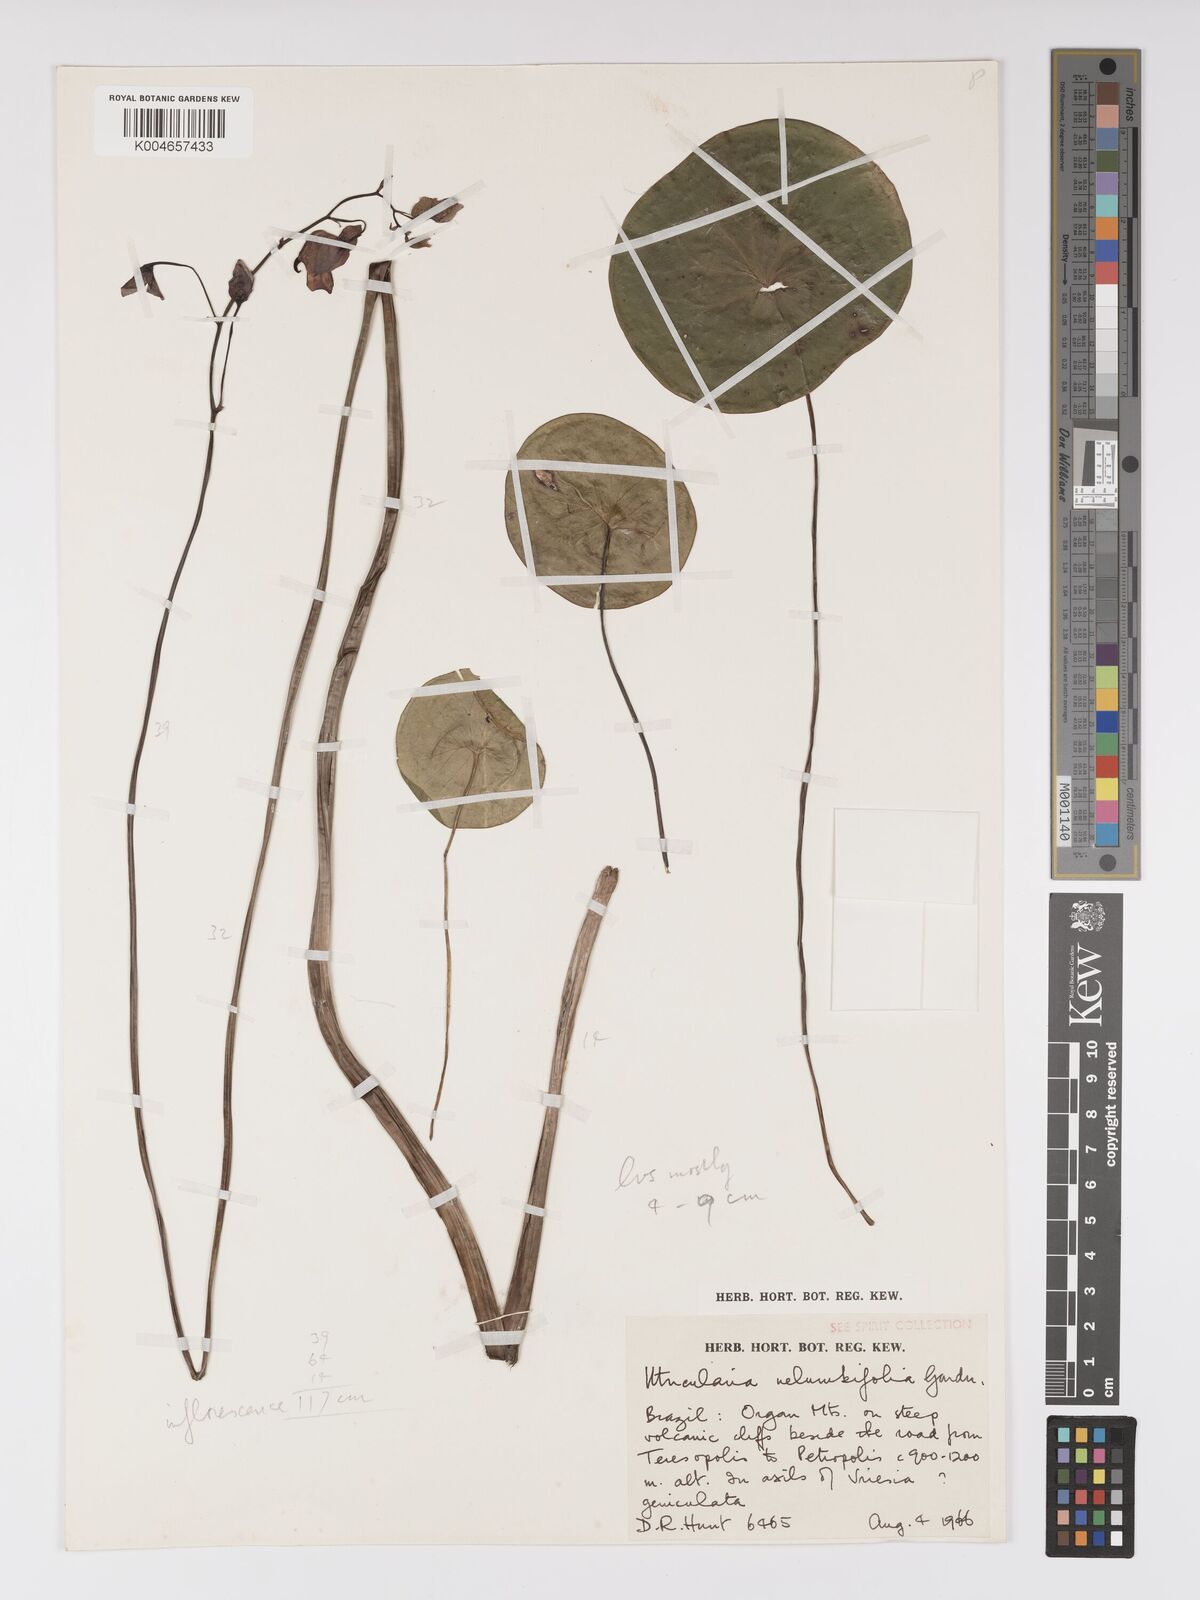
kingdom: Plantae
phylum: Tracheophyta
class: Magnoliopsida
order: Lamiales
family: Lentibulariaceae
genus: Utricularia
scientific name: Utricularia nelumbifolia
